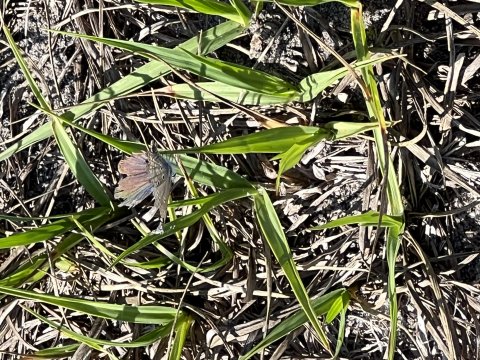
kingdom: Animalia
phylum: Arthropoda
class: Insecta
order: Lepidoptera
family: Lycaenidae
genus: Hemiargus
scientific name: Hemiargus ceraunus
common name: Ceraunus Blue
